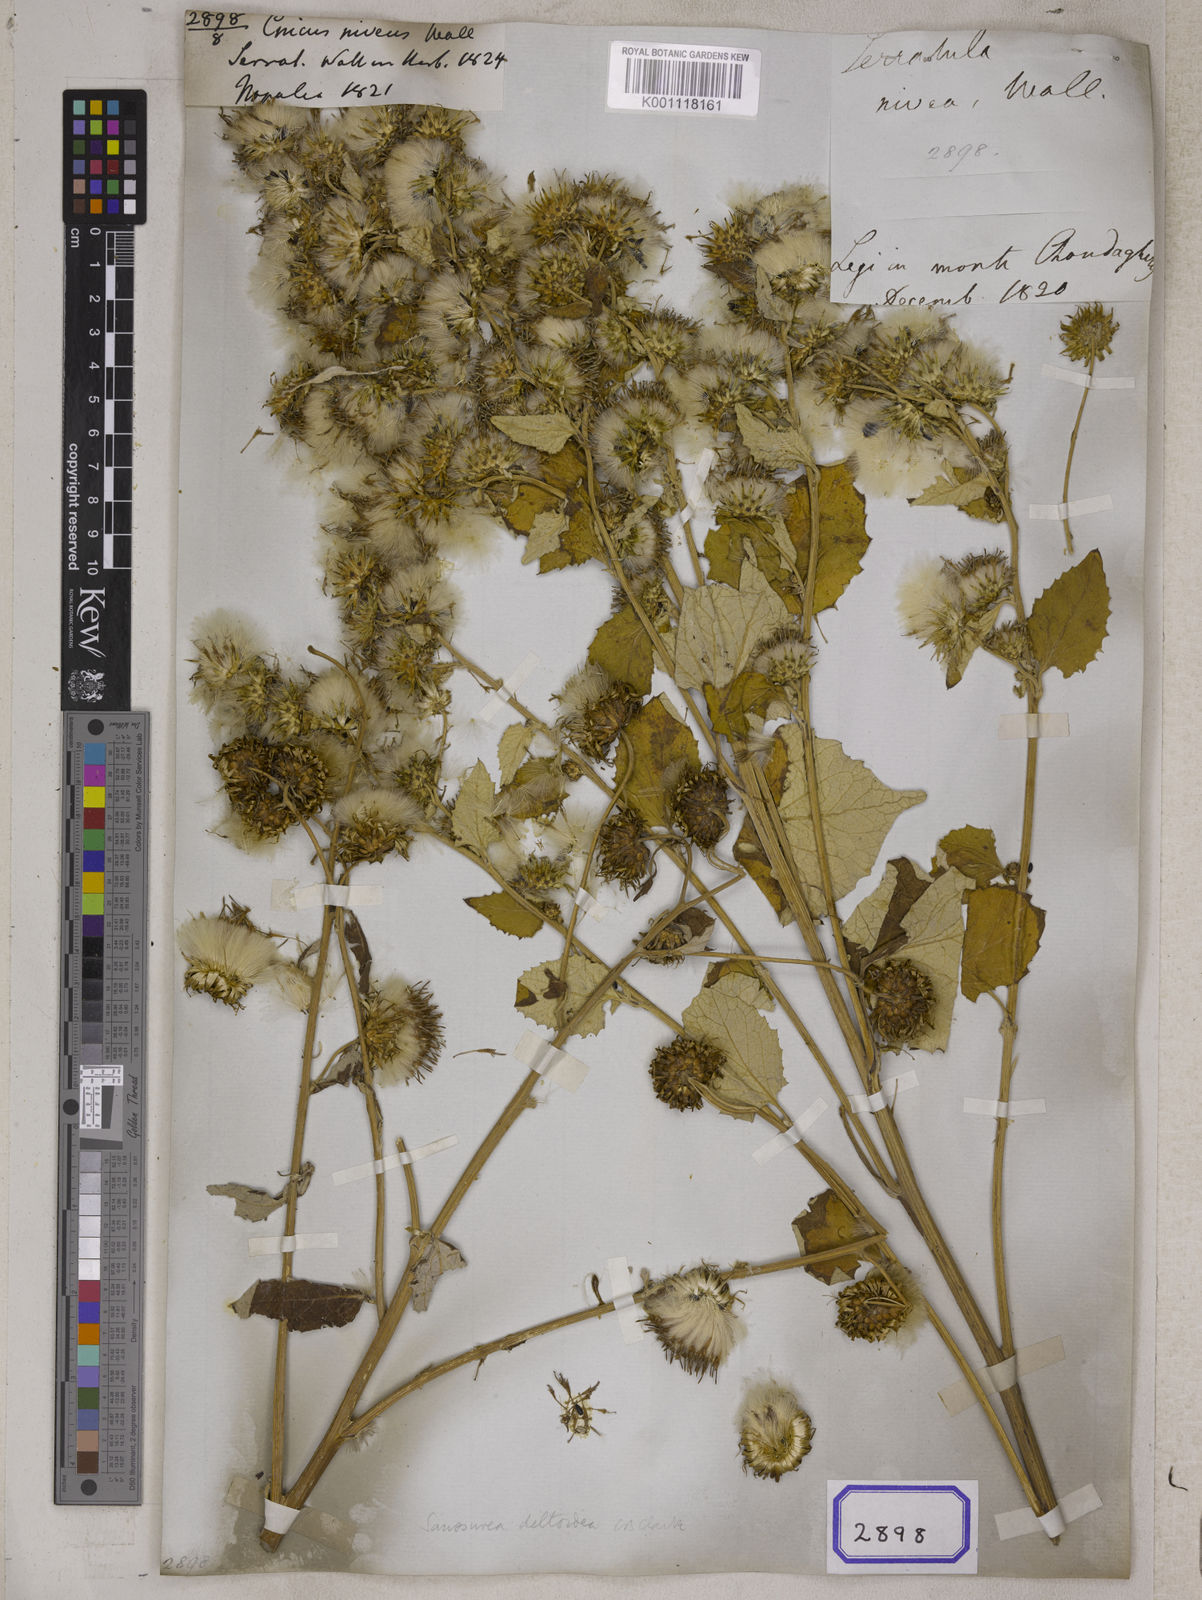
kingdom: Plantae
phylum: Tracheophyta
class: Magnoliopsida
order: Asterales
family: Asteraceae
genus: Centaurea
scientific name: Centaurea
